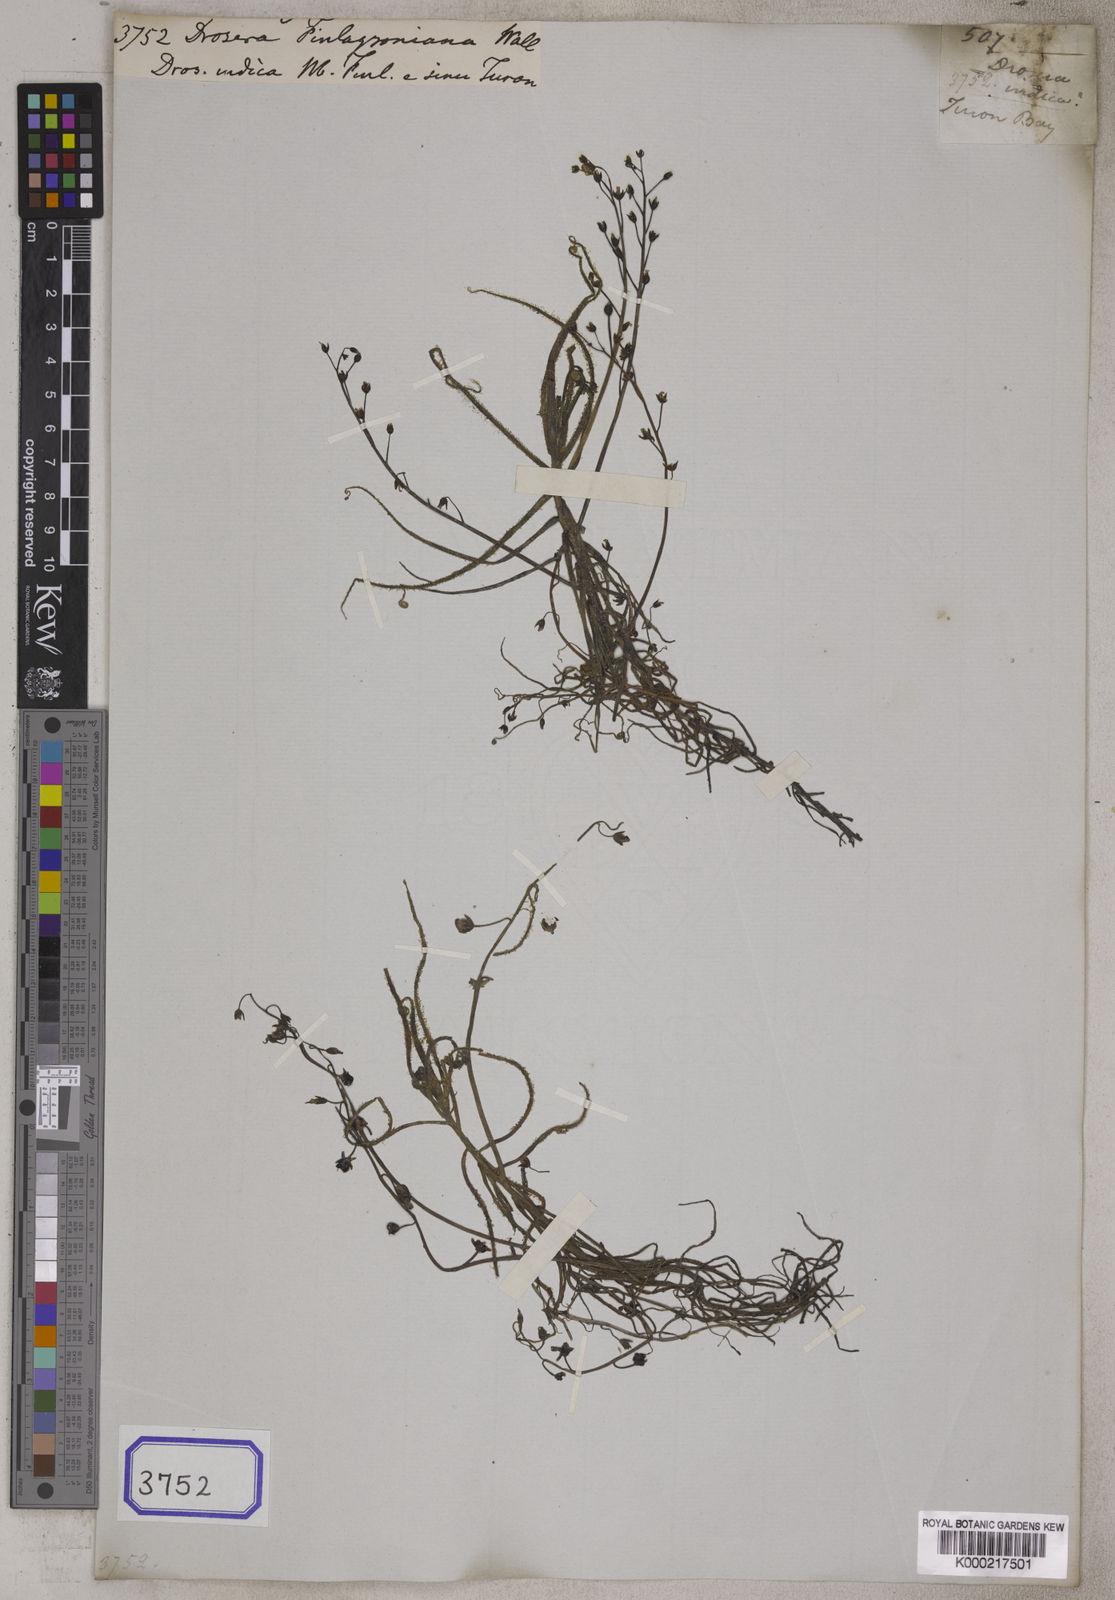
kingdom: Plantae
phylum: Tracheophyta
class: Magnoliopsida
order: Caryophyllales
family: Droseraceae
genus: Drosera
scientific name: Drosera indica
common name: Indian sundew
